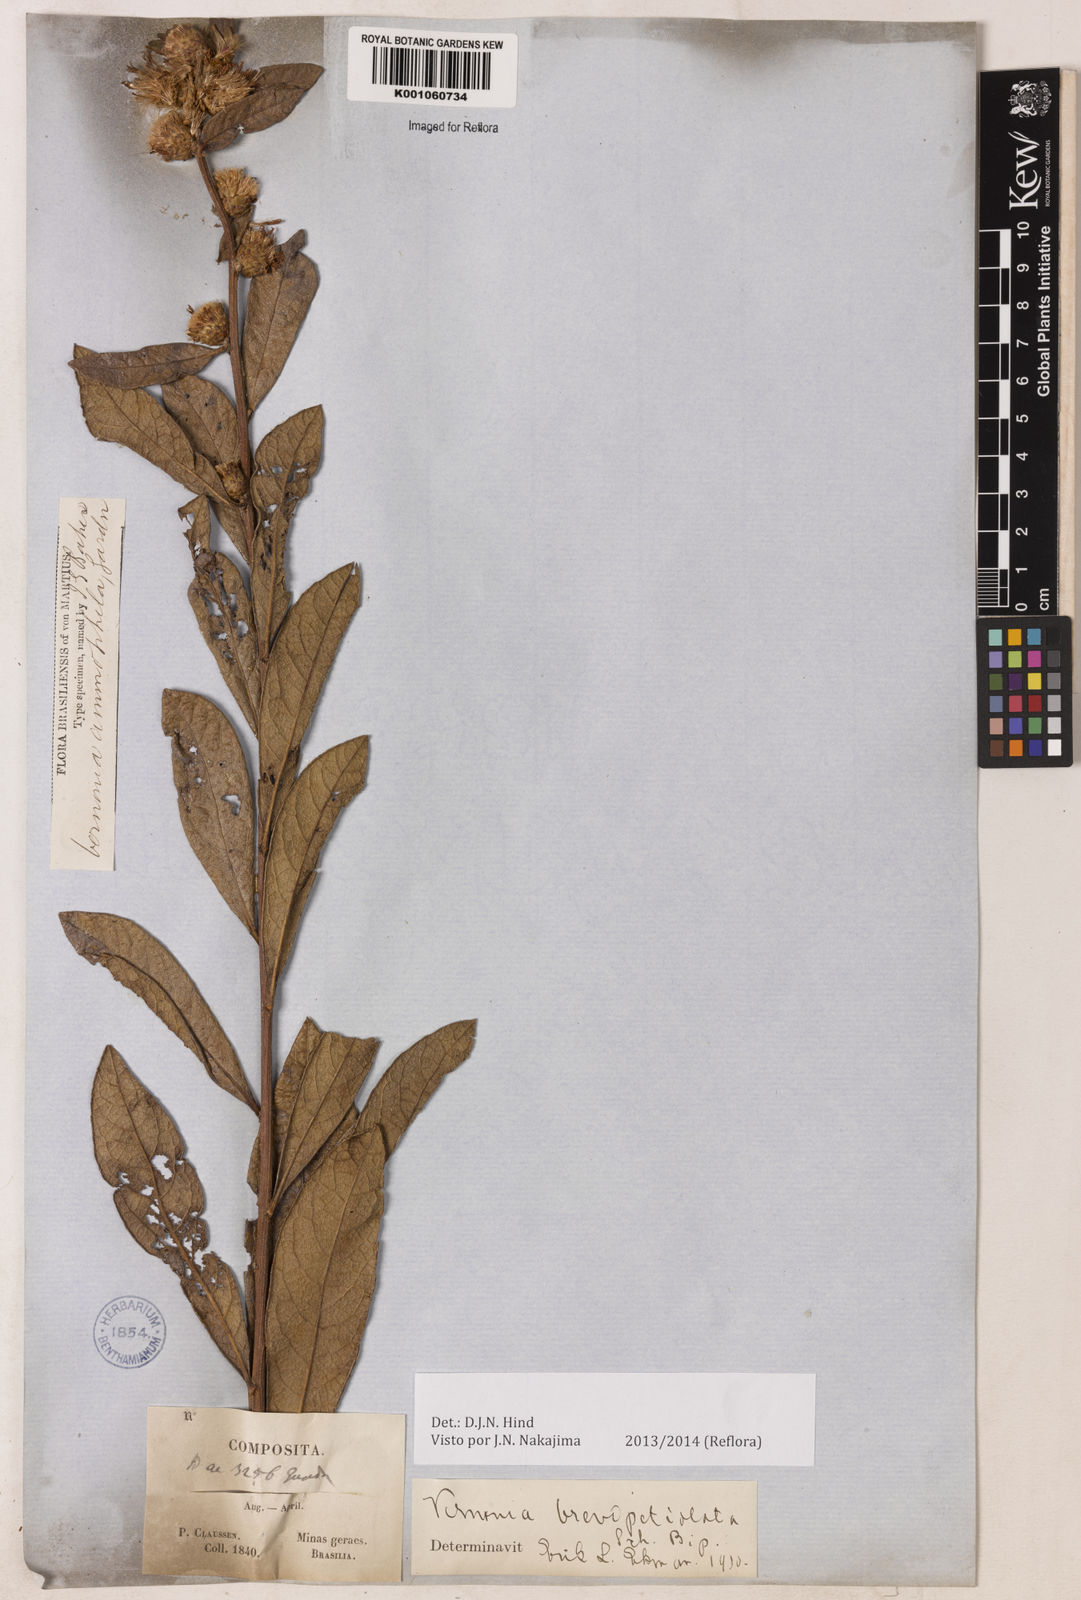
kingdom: Plantae
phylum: Tracheophyta
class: Magnoliopsida
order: Asterales
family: Asteraceae
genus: Lessingianthus
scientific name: Lessingianthus brevipetiolatus
